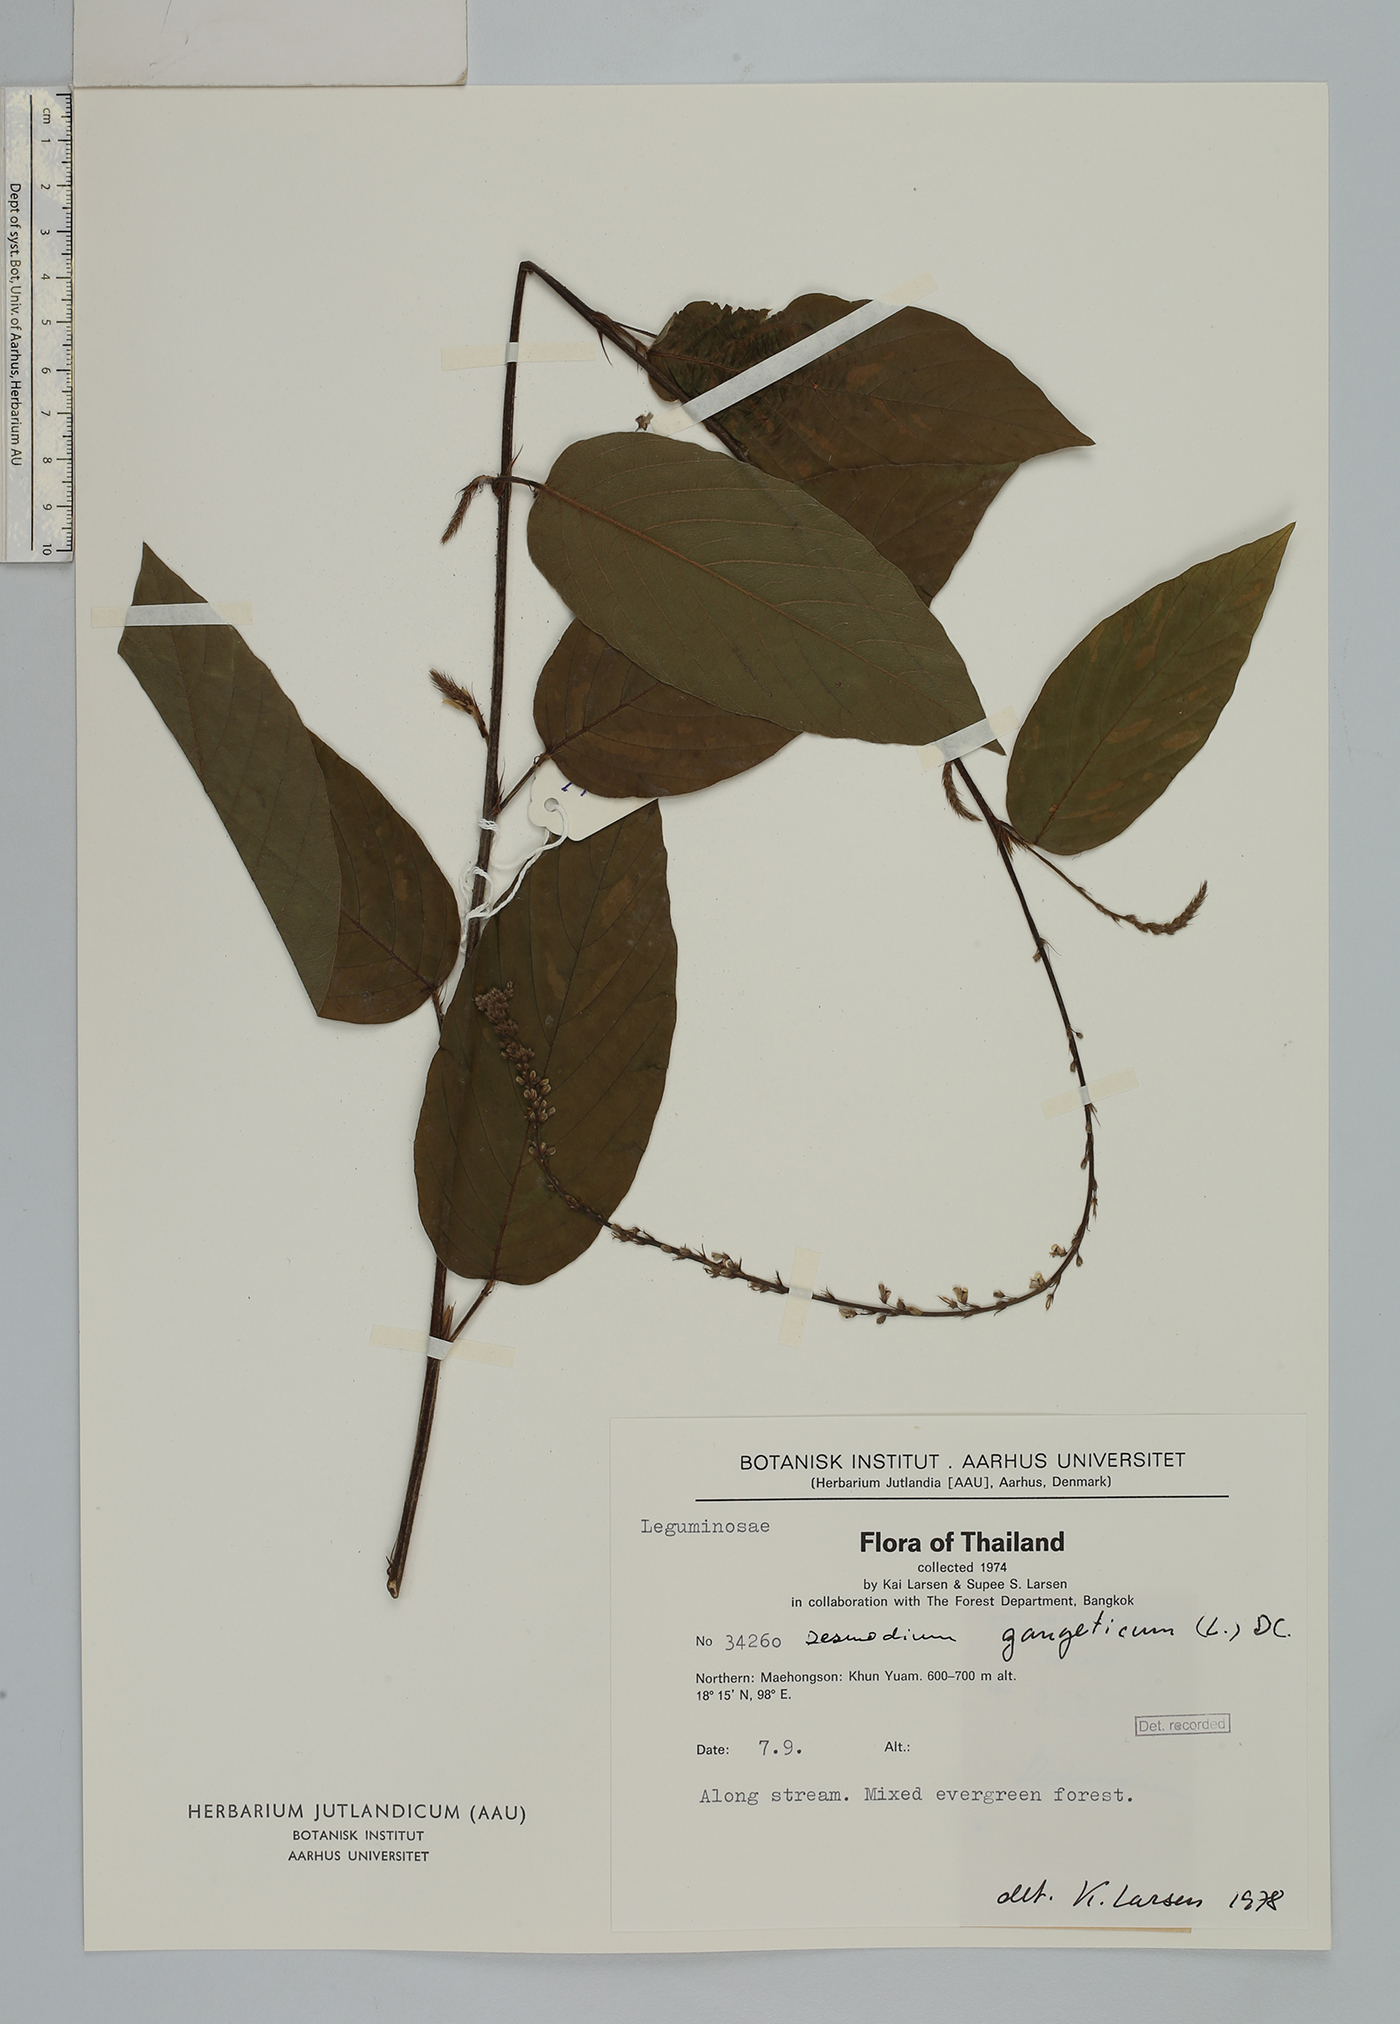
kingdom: Plantae
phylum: Tracheophyta
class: Magnoliopsida
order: Fabales
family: Fabaceae
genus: Pleurolobus
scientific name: Pleurolobus gangeticus
